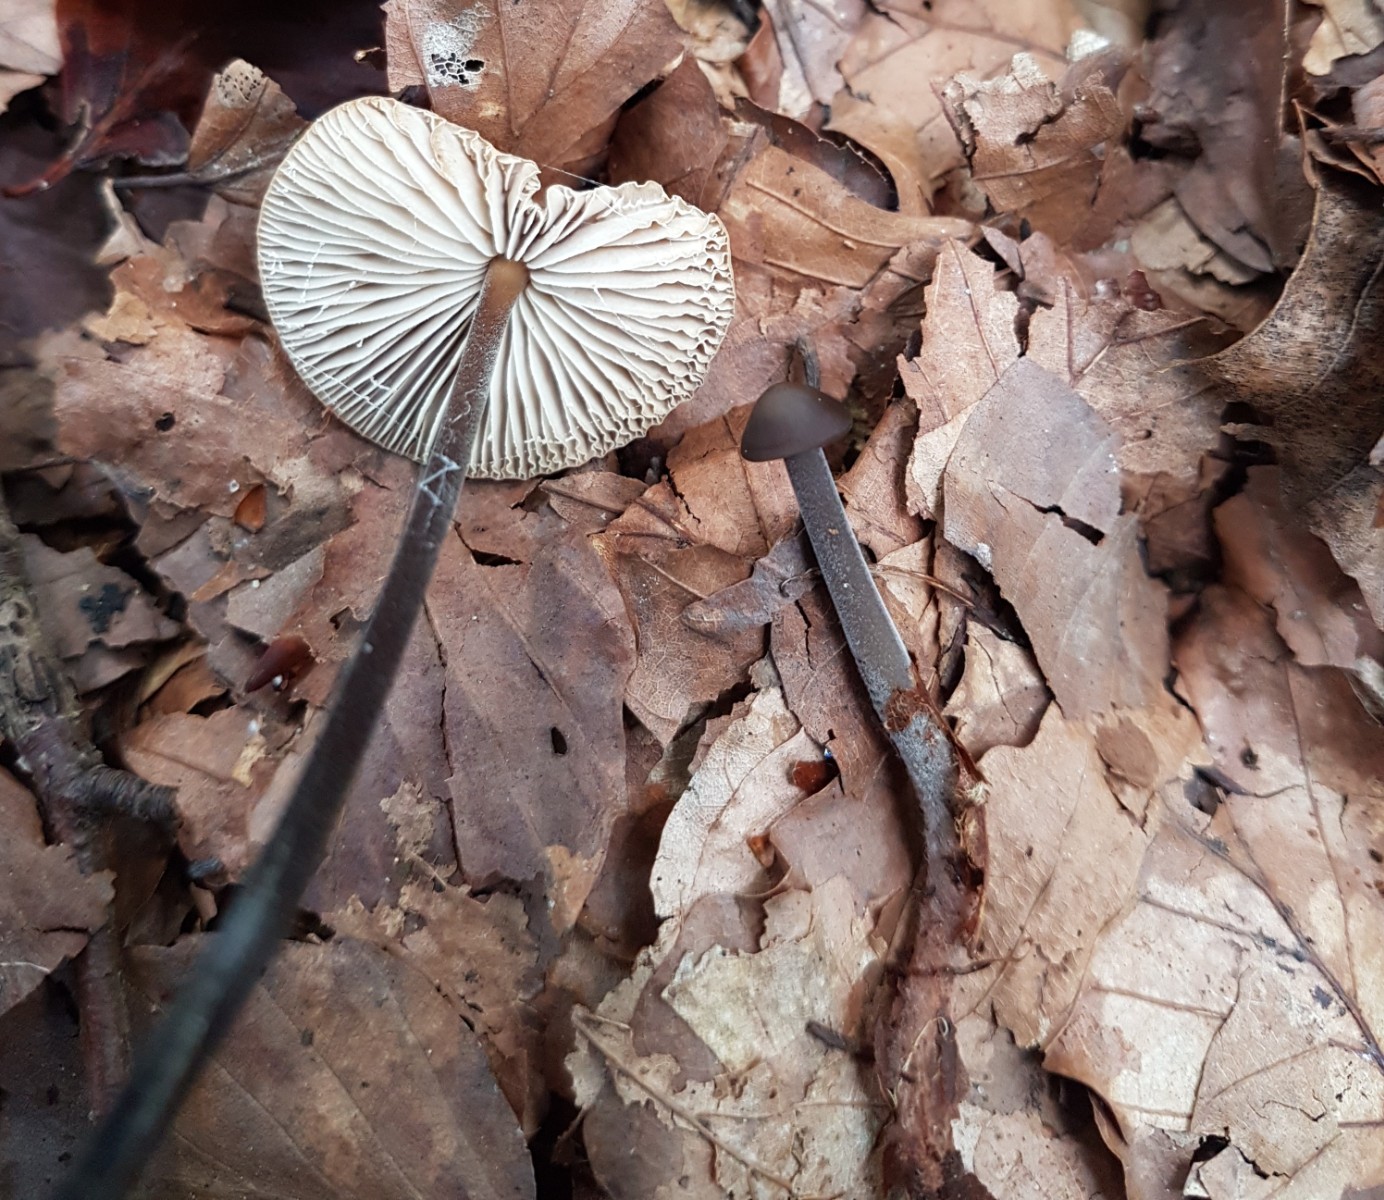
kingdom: Fungi
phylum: Basidiomycota
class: Agaricomycetes
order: Agaricales
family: Omphalotaceae
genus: Mycetinis
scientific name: Mycetinis alliaceus
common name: stor løghat
